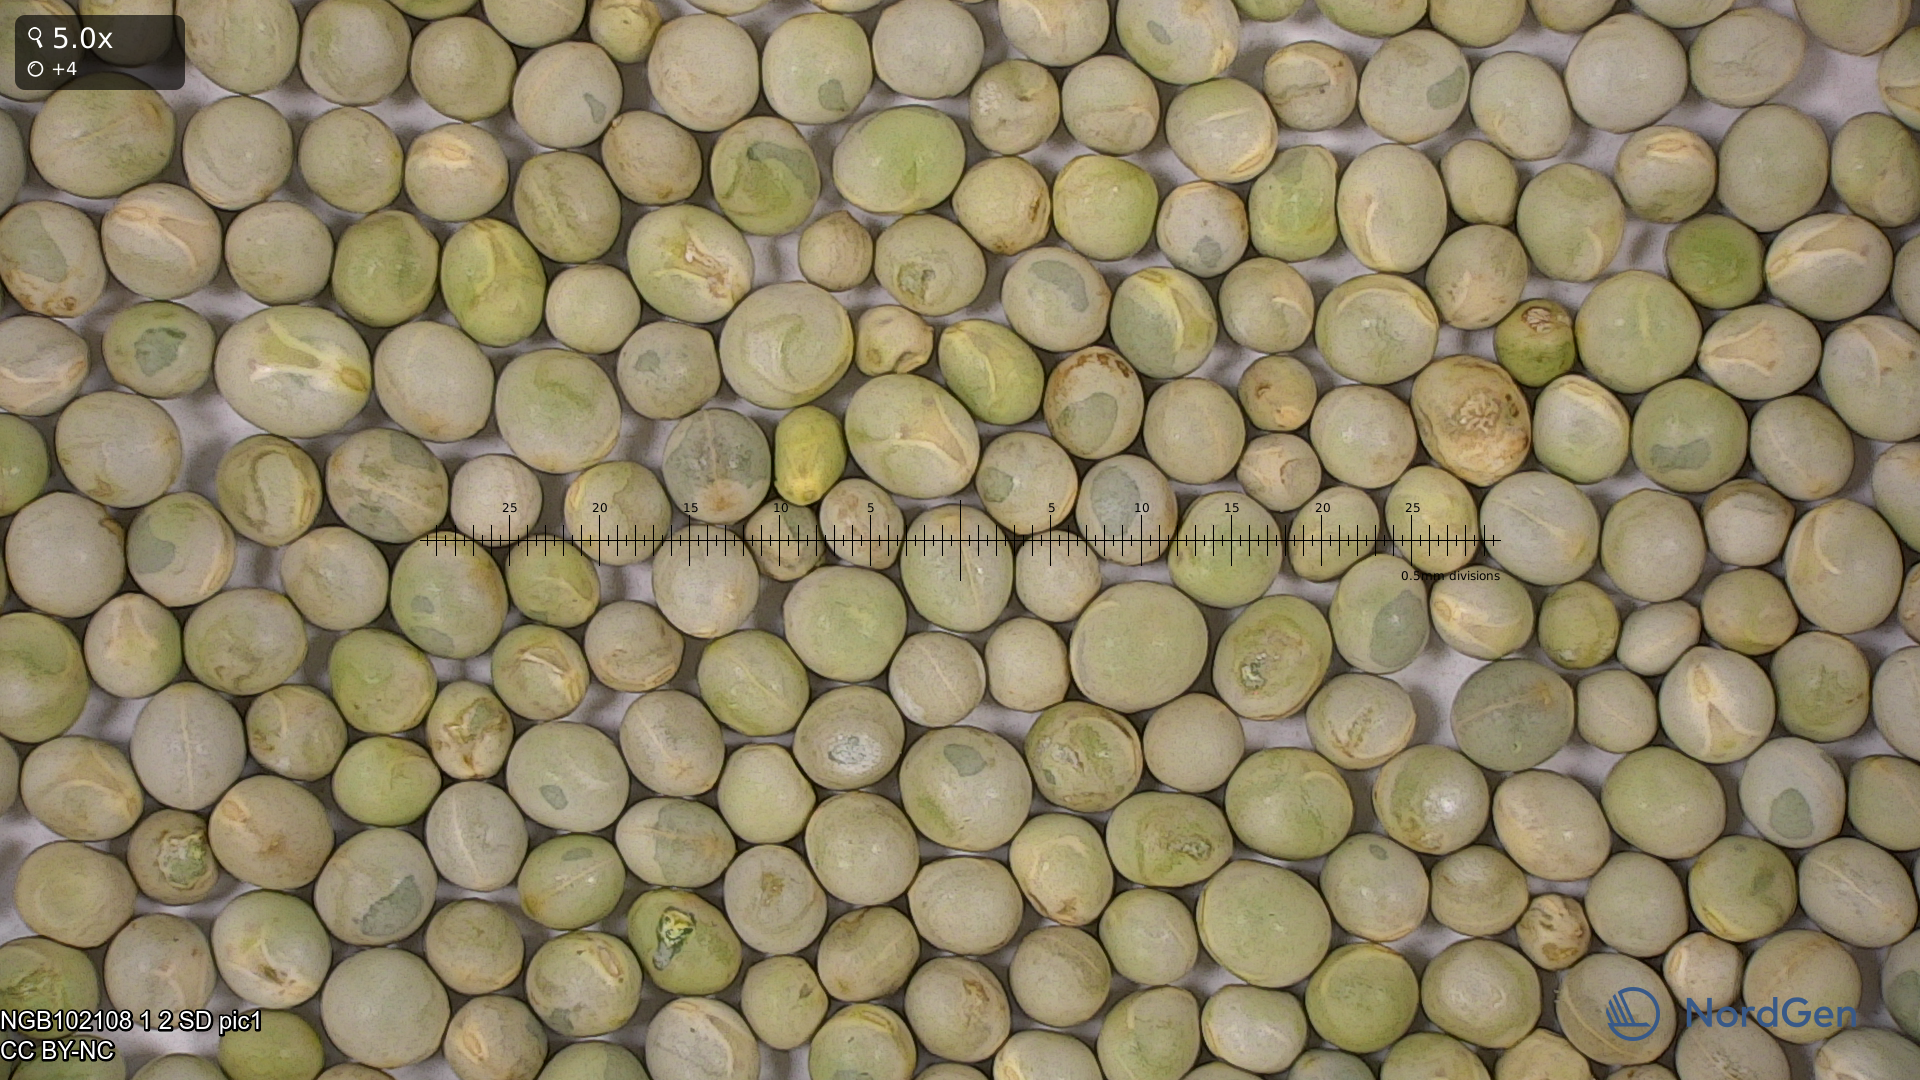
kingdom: Plantae
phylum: Tracheophyta
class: Magnoliopsida
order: Fabales
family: Fabaceae
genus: Lathyrus
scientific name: Lathyrus oleraceus
